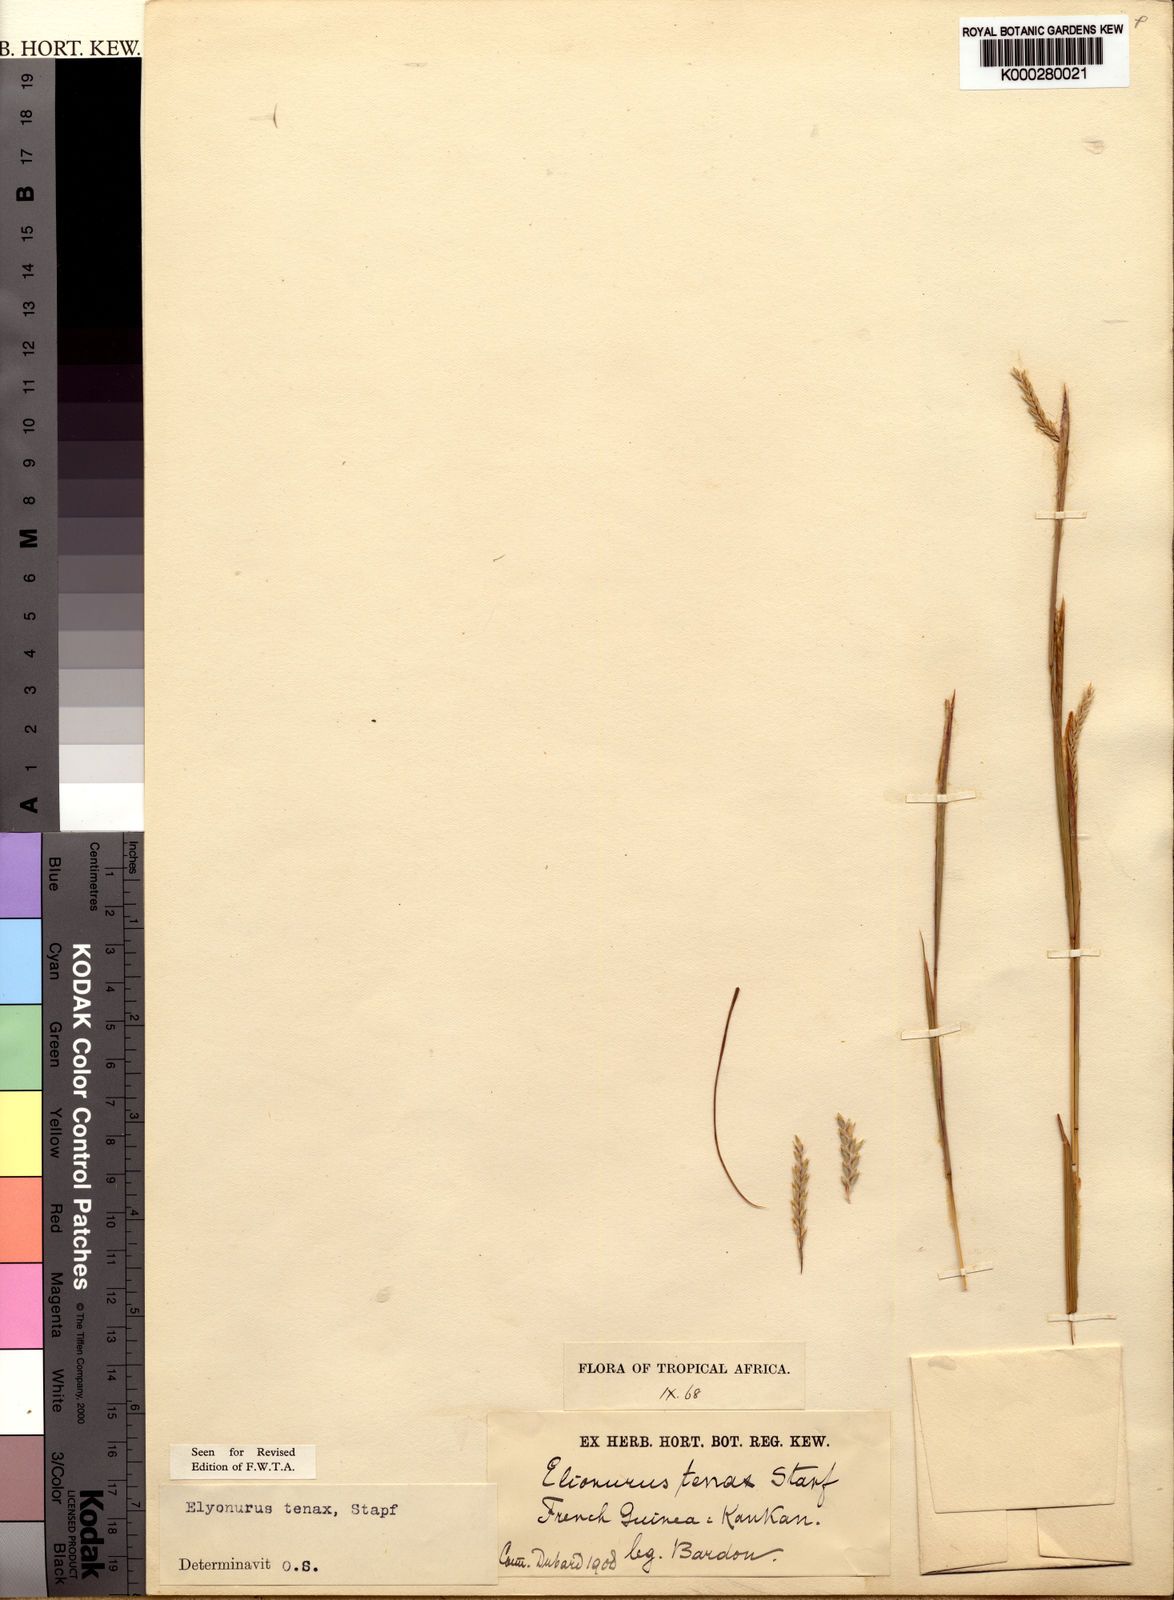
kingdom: Plantae
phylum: Tracheophyta
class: Liliopsida
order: Poales
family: Poaceae
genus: Elionurus
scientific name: Elionurus
